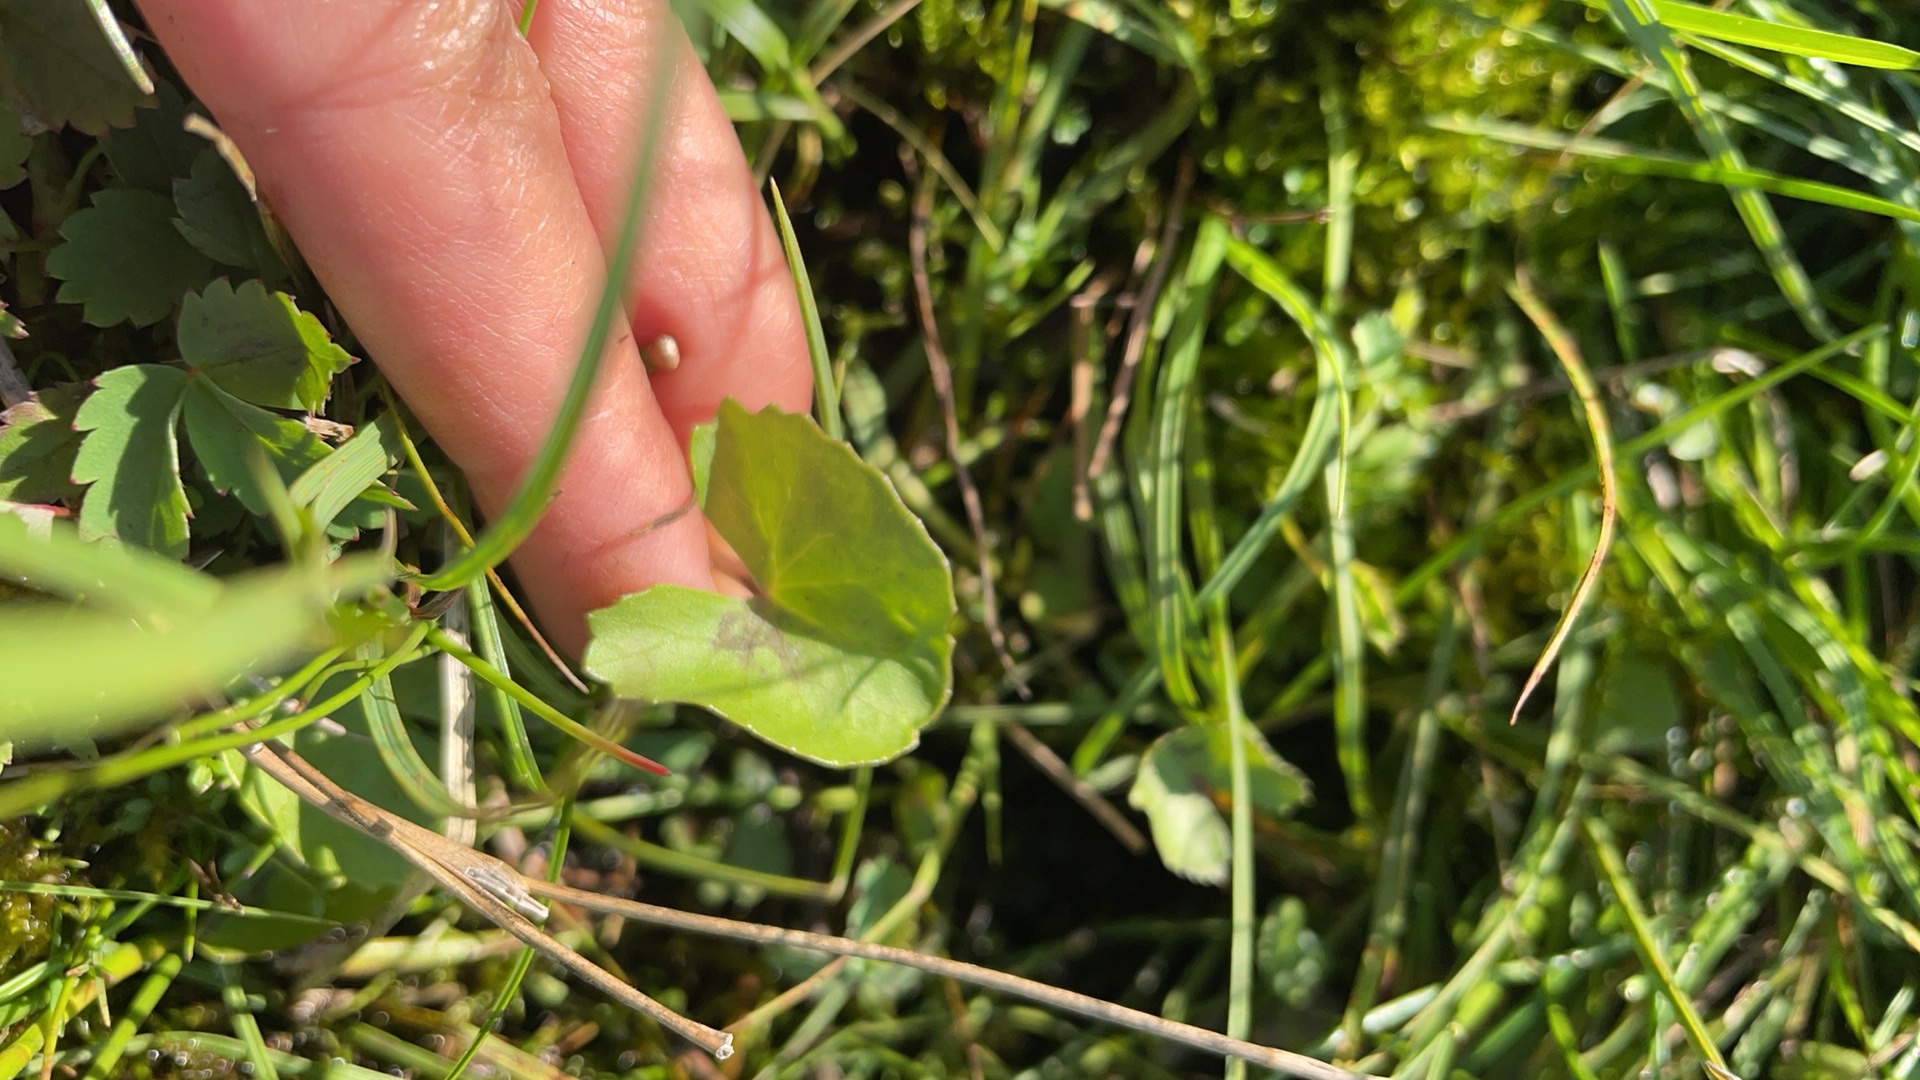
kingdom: Plantae
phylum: Tracheophyta
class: Magnoliopsida
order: Ranunculales
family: Ranunculaceae
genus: Caltha
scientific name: Caltha palustris
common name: Eng-kabbeleje
